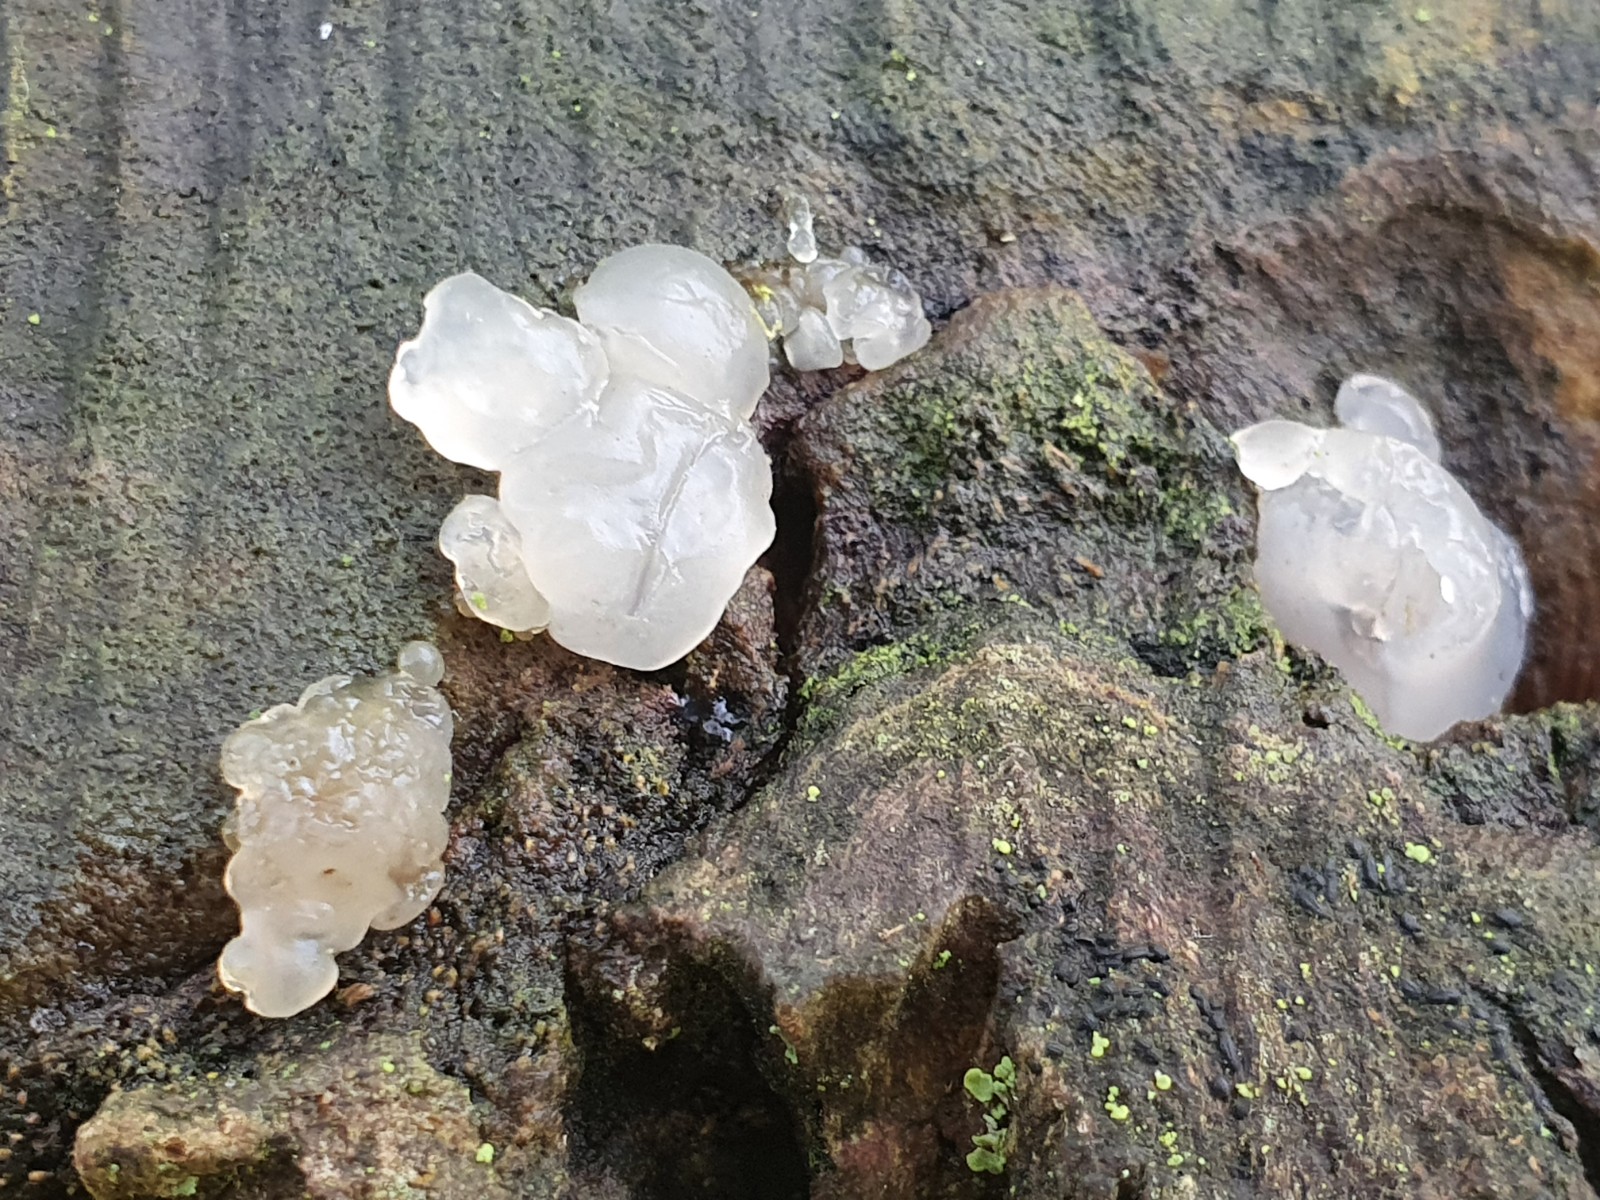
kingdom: Fungi
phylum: Basidiomycota
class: Agaricomycetes
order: Auriculariales
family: Hyaloriaceae
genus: Myxarium
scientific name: Myxarium nucleatum
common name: klar bævretop
